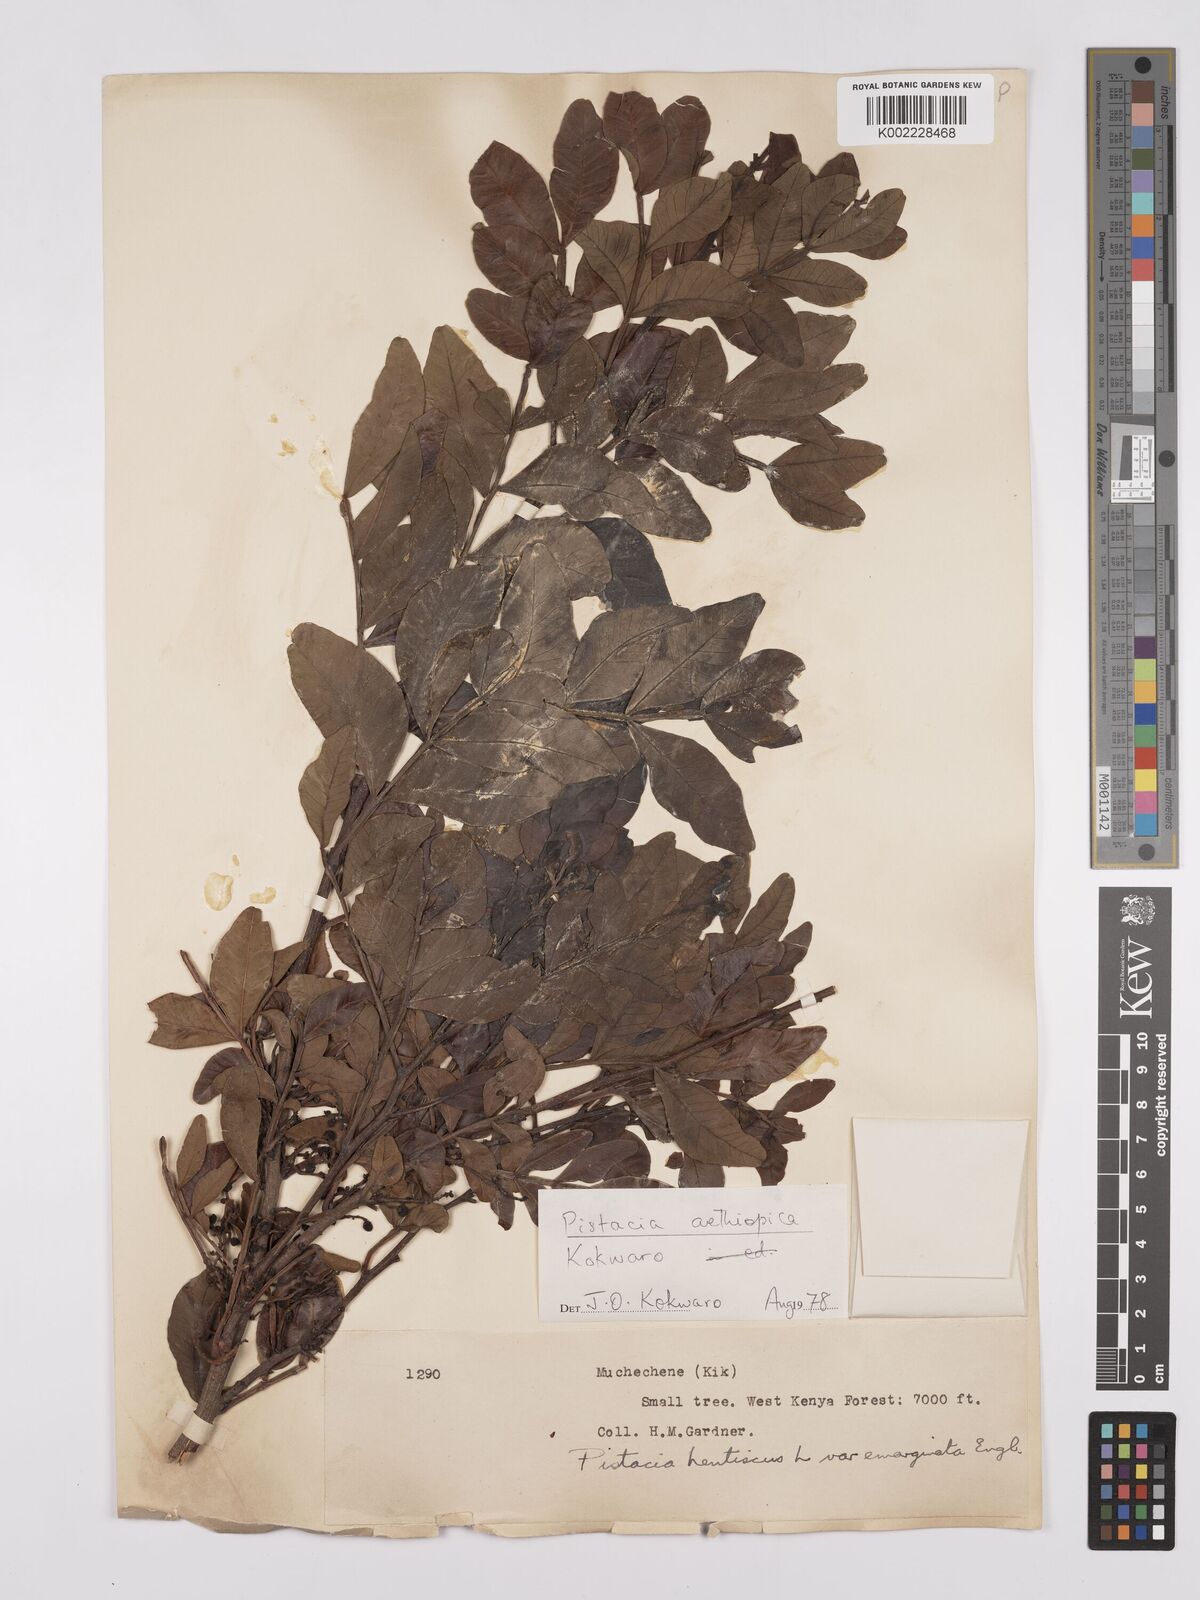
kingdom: Plantae
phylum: Tracheophyta
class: Magnoliopsida
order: Sapindales
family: Anacardiaceae
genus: Pistacia
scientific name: Pistacia lentiscus
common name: Lentisk
